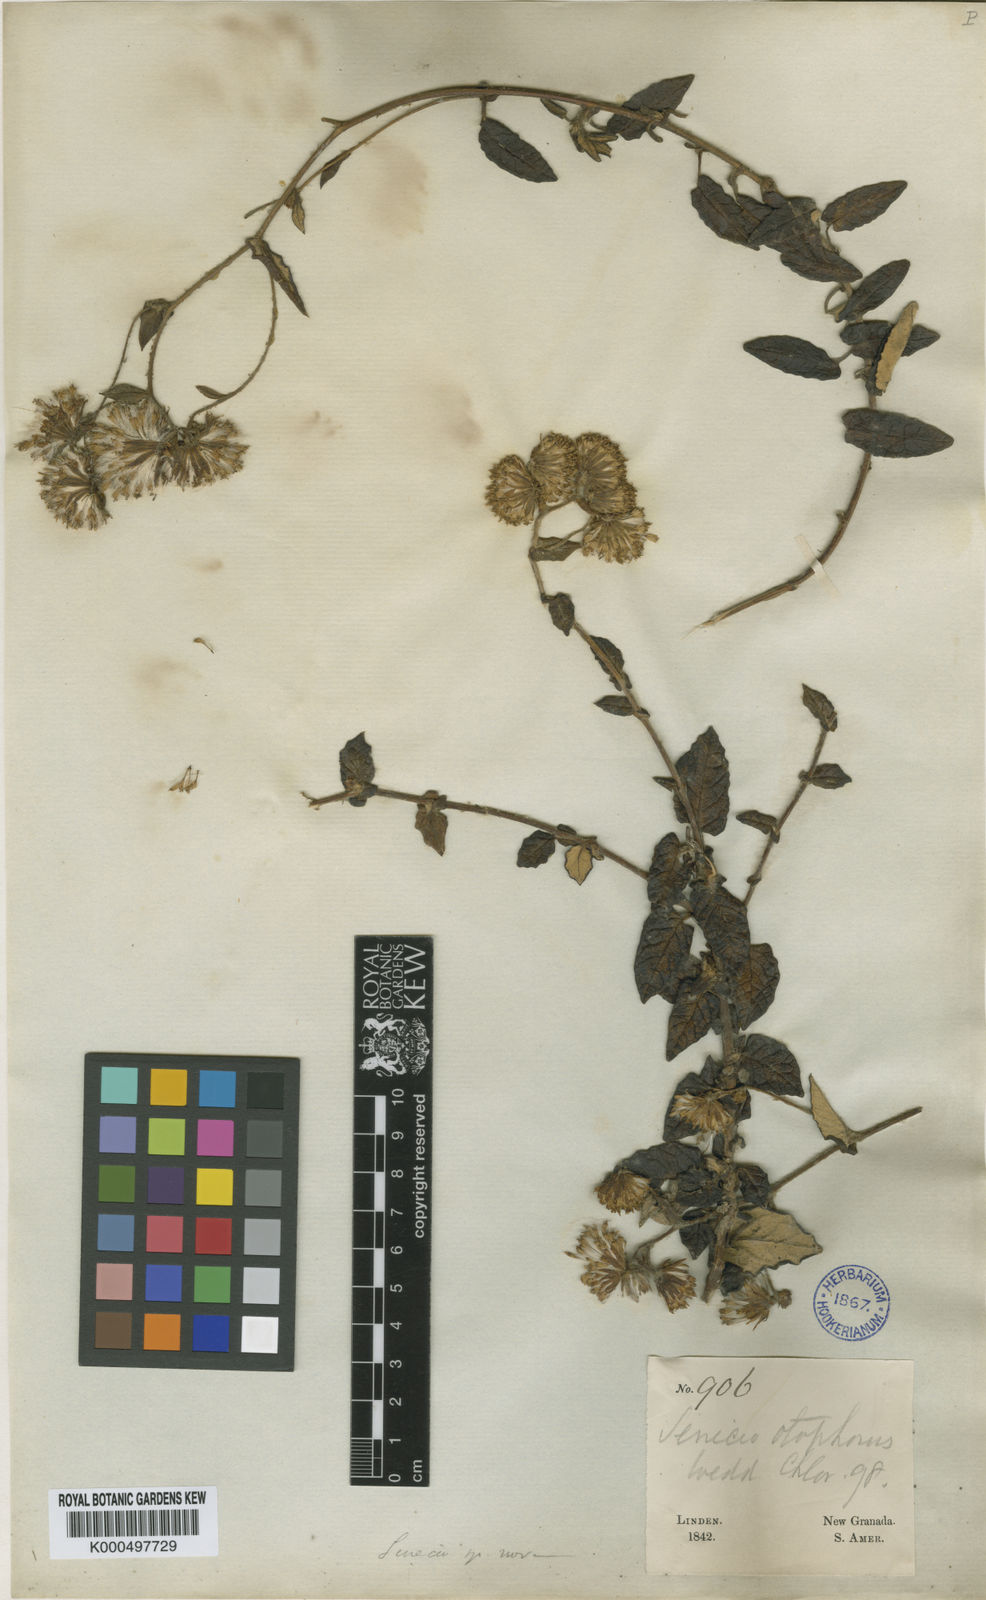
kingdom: Plantae
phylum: Tracheophyta
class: Magnoliopsida
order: Asterales
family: Asteraceae
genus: Aetheolaena
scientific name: Aetheolaena otophora
